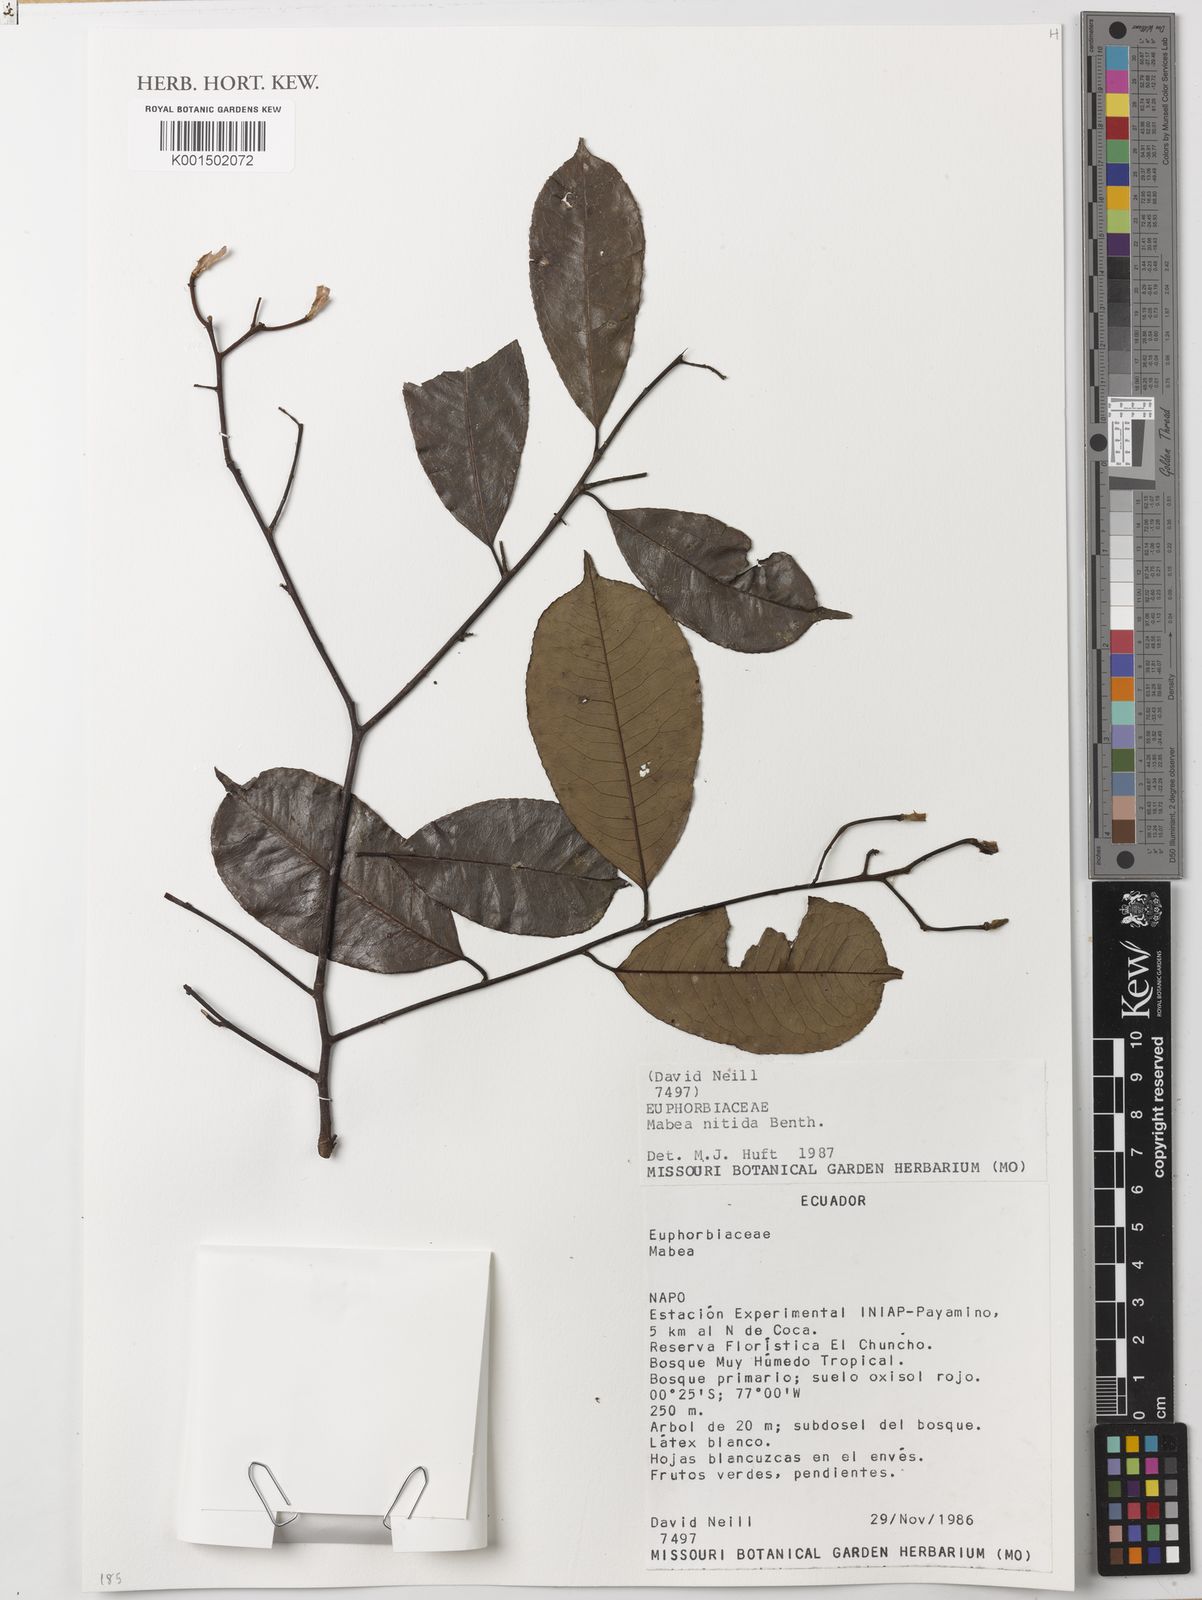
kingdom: Plantae
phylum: Tracheophyta
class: Magnoliopsida
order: Malpighiales
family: Euphorbiaceae
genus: Mabea
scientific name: Mabea nitida
